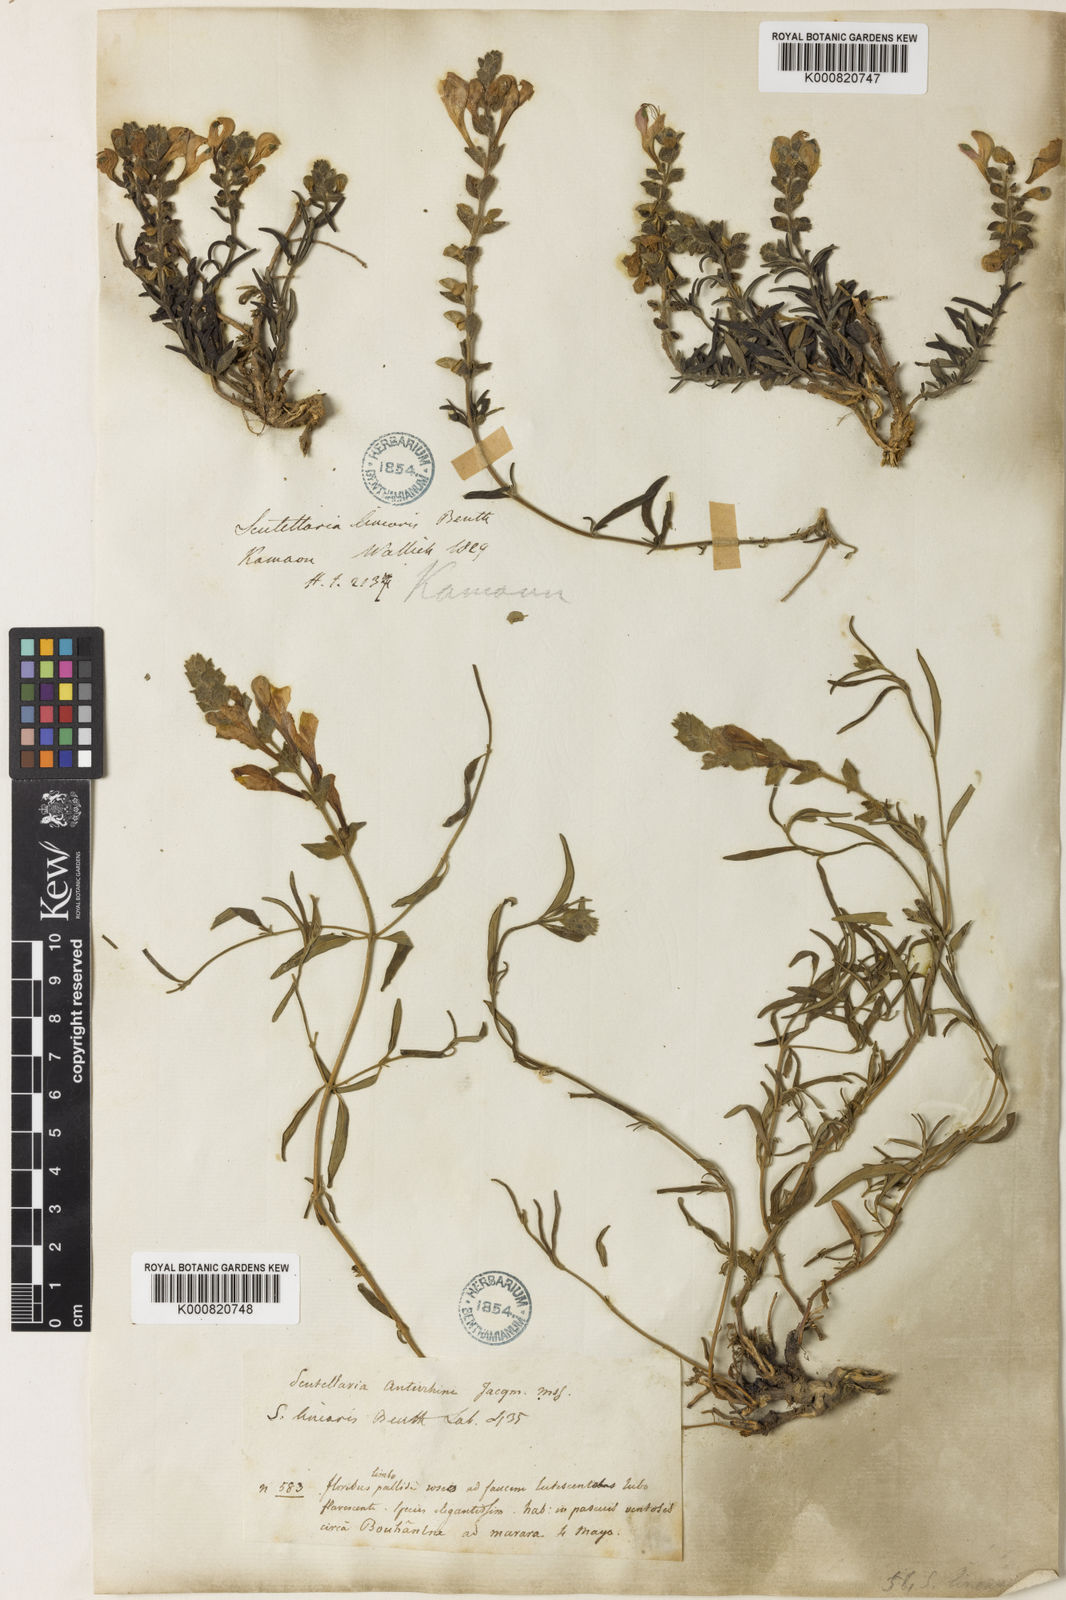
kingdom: Plantae
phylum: Tracheophyta
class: Magnoliopsida
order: Lamiales
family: Lamiaceae
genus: Scutellaria
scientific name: Scutellaria linearis
